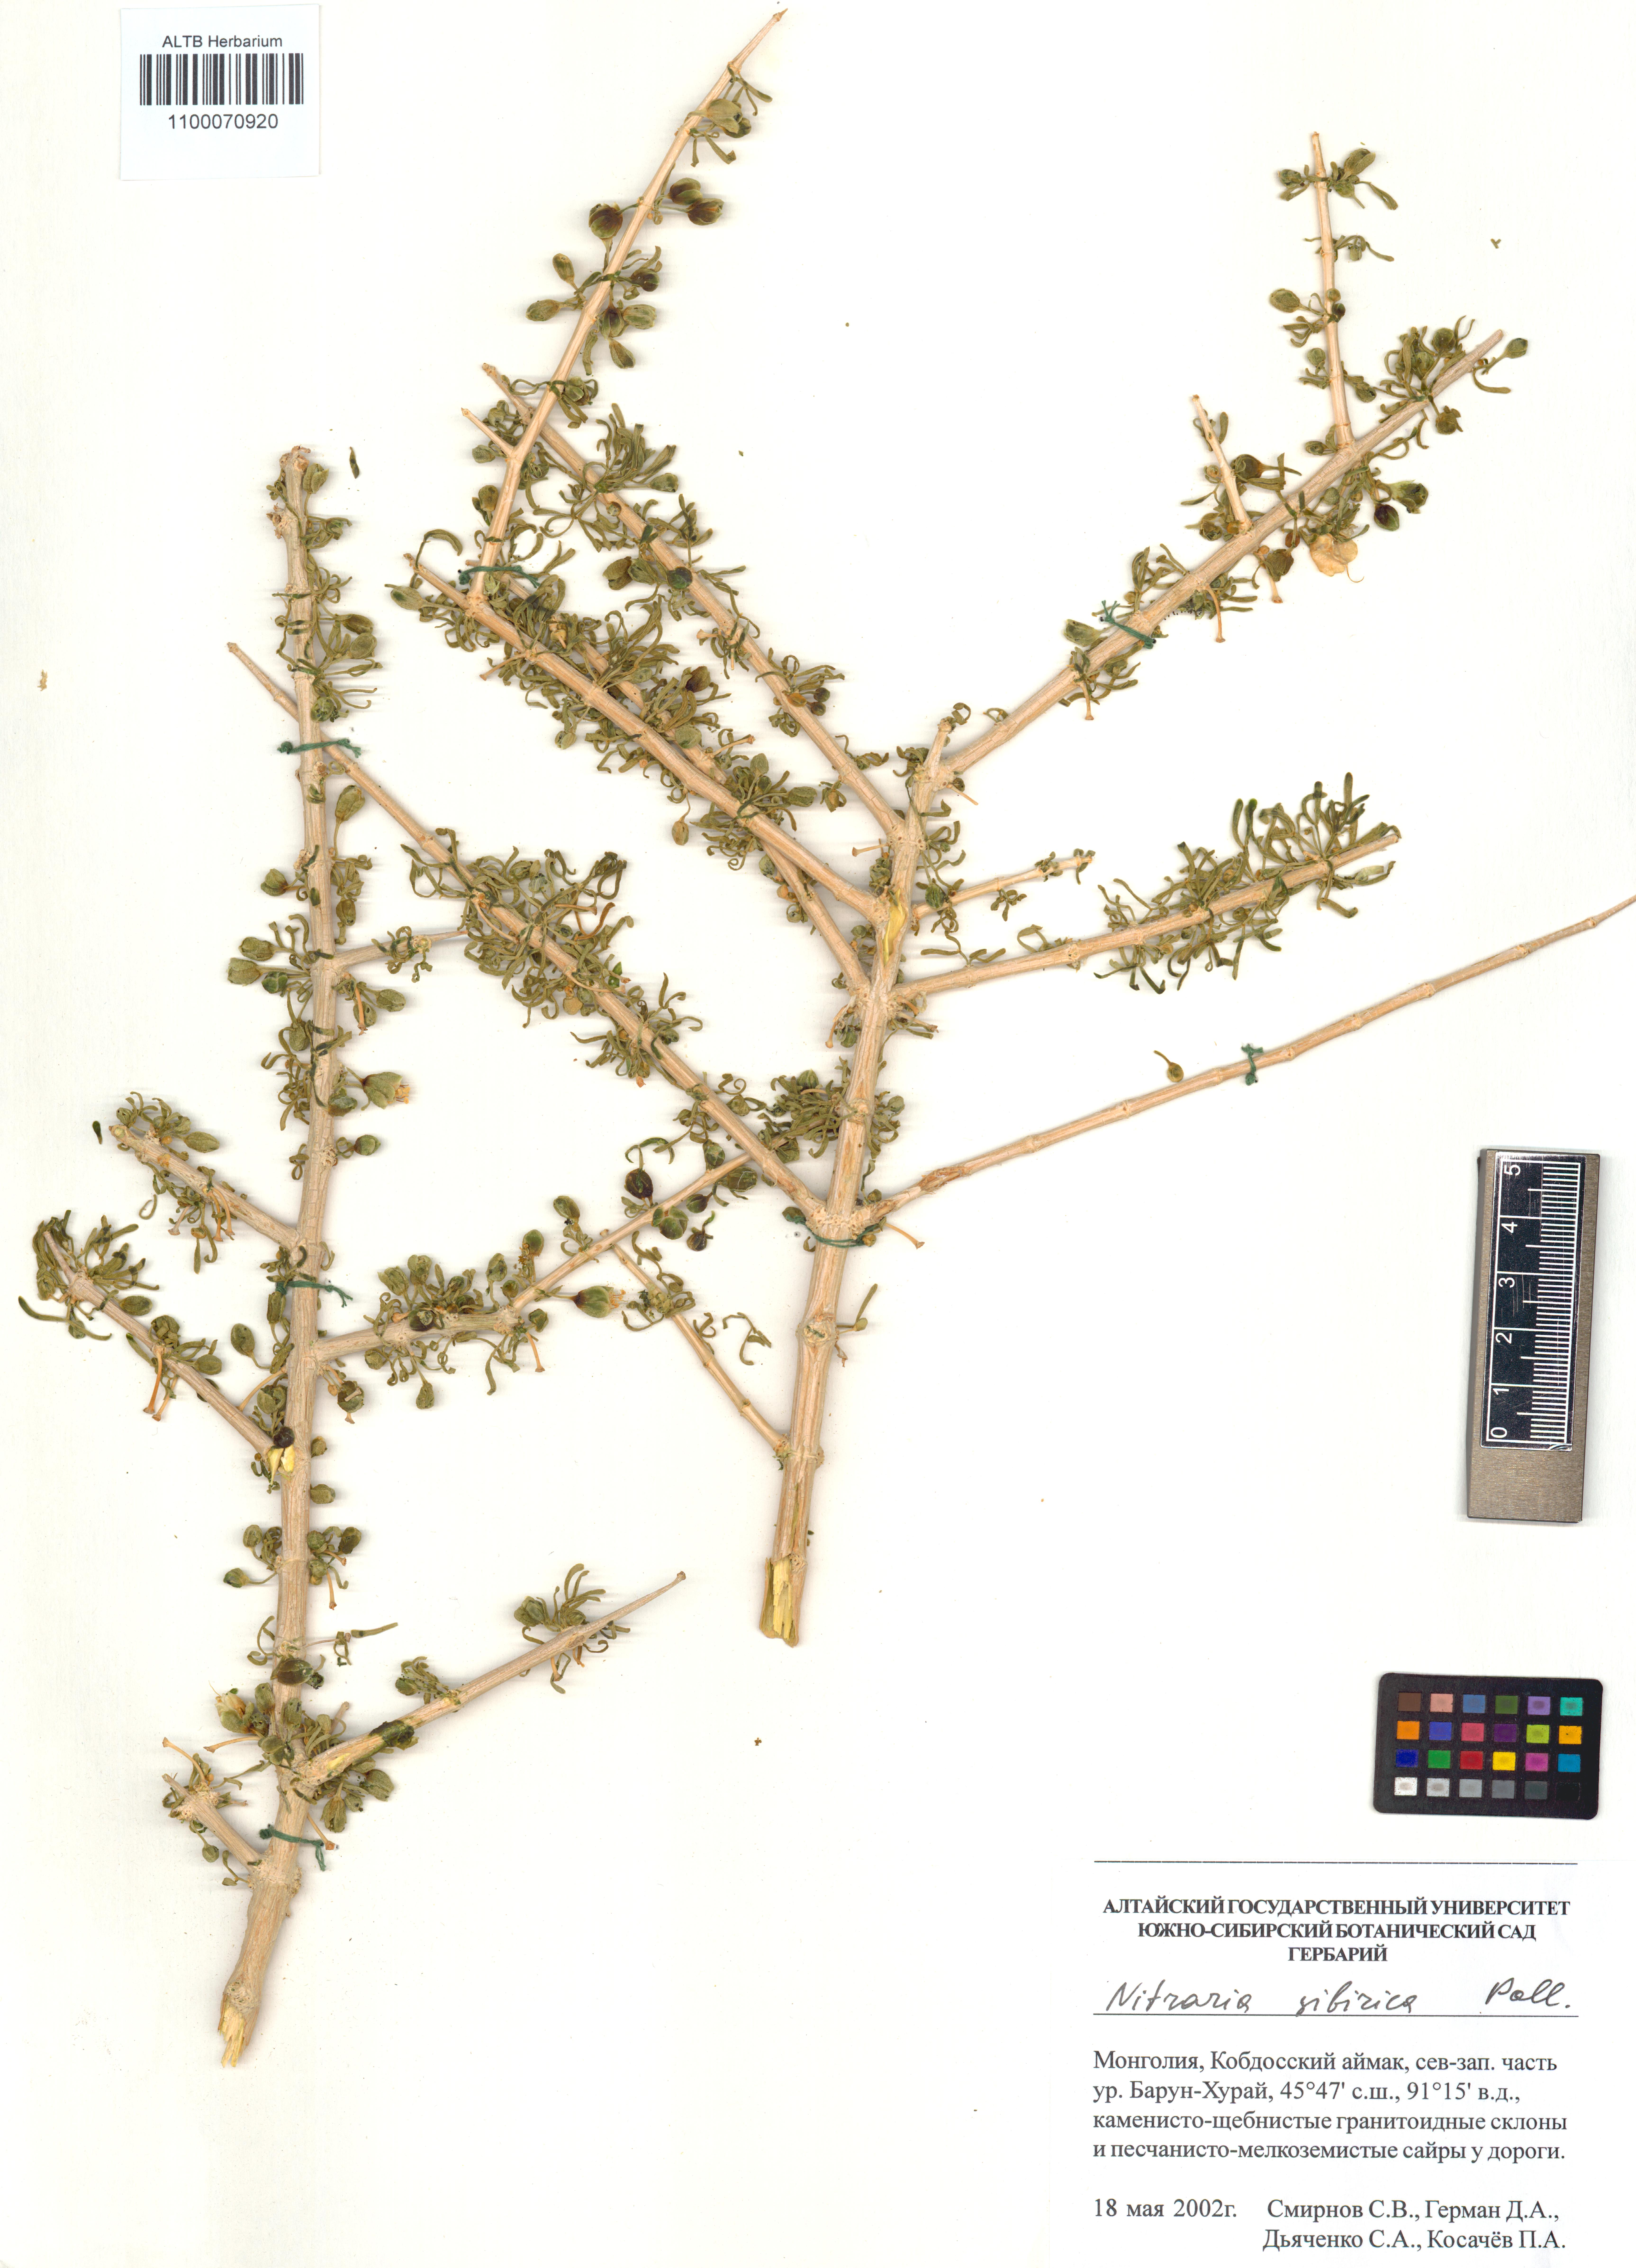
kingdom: Plantae
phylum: Tracheophyta
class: Magnoliopsida
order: Sapindales
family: Nitrariaceae
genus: Nitraria
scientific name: Nitraria sibirica
